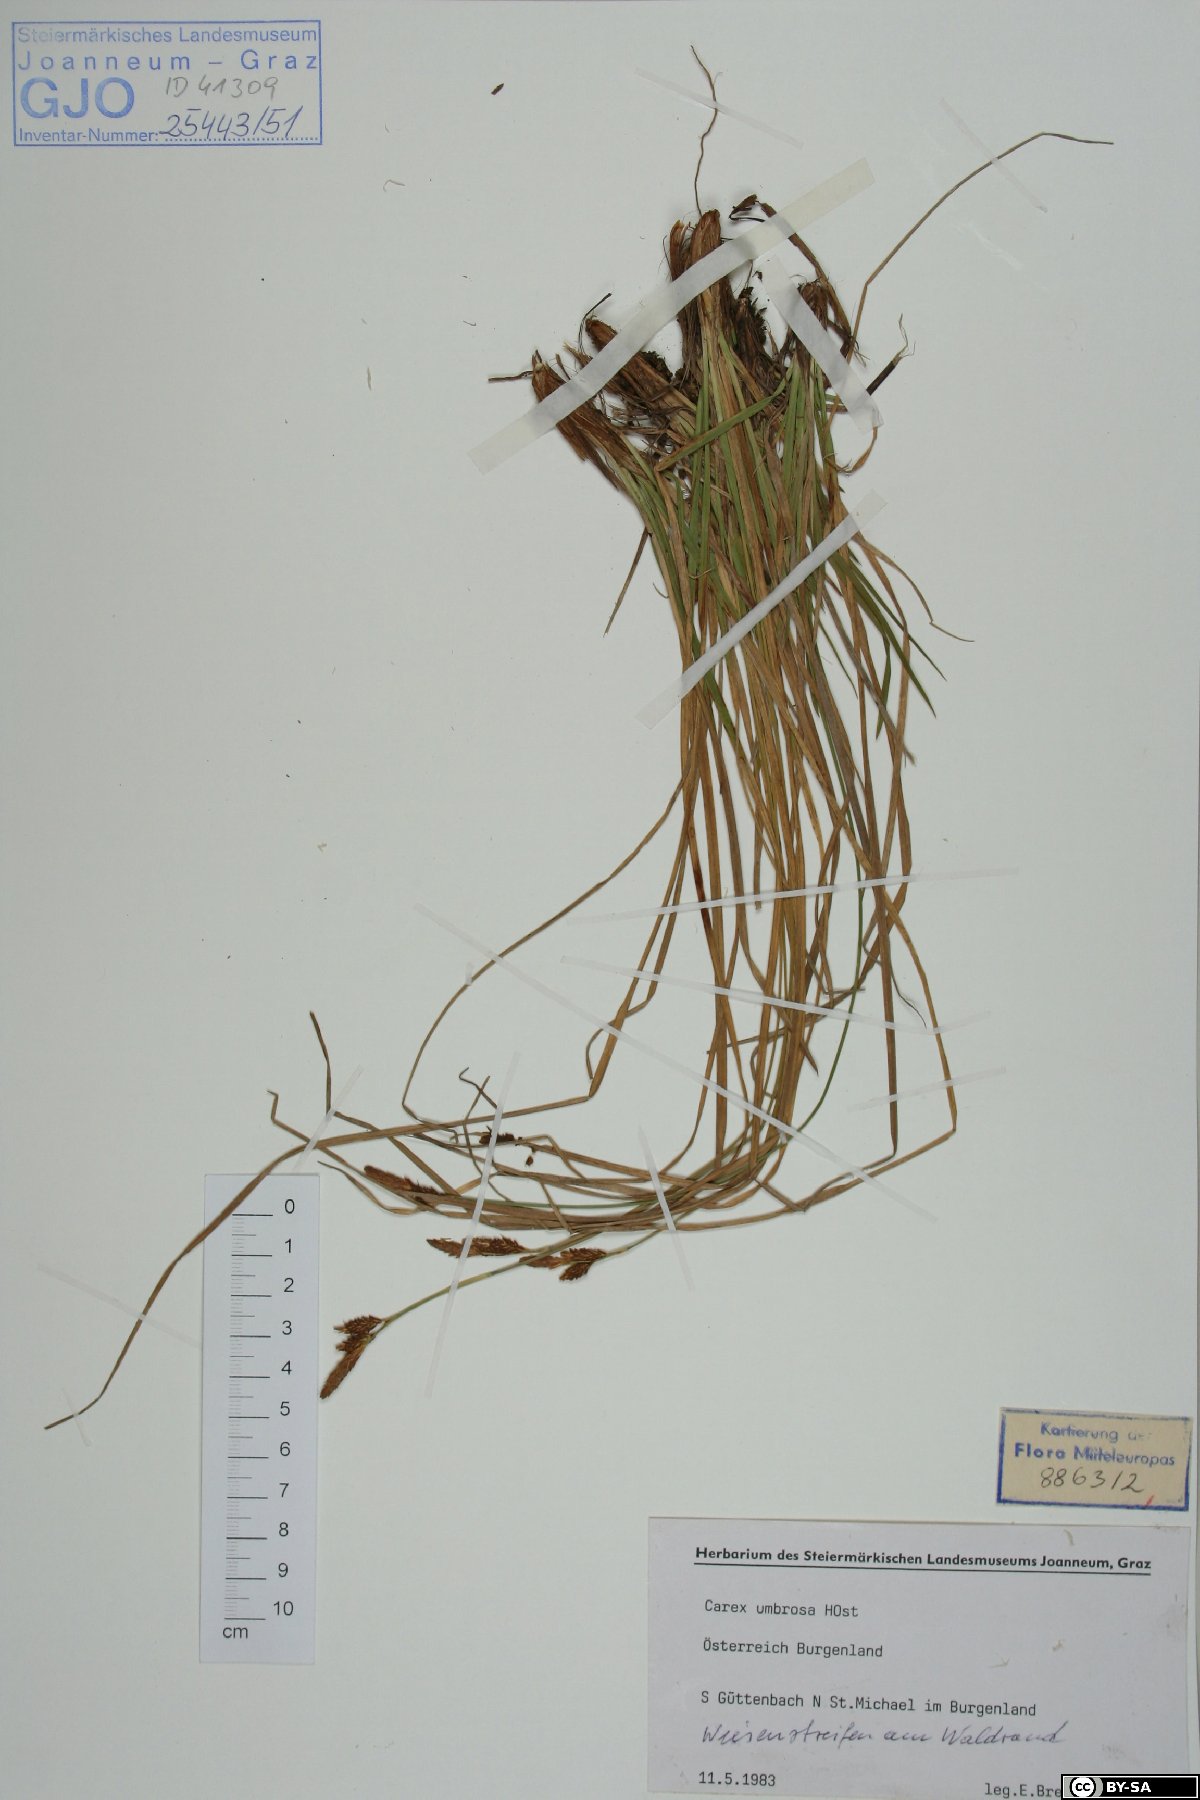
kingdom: Plantae
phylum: Tracheophyta
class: Liliopsida
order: Poales
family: Cyperaceae
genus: Carex
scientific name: Carex umbrosa
